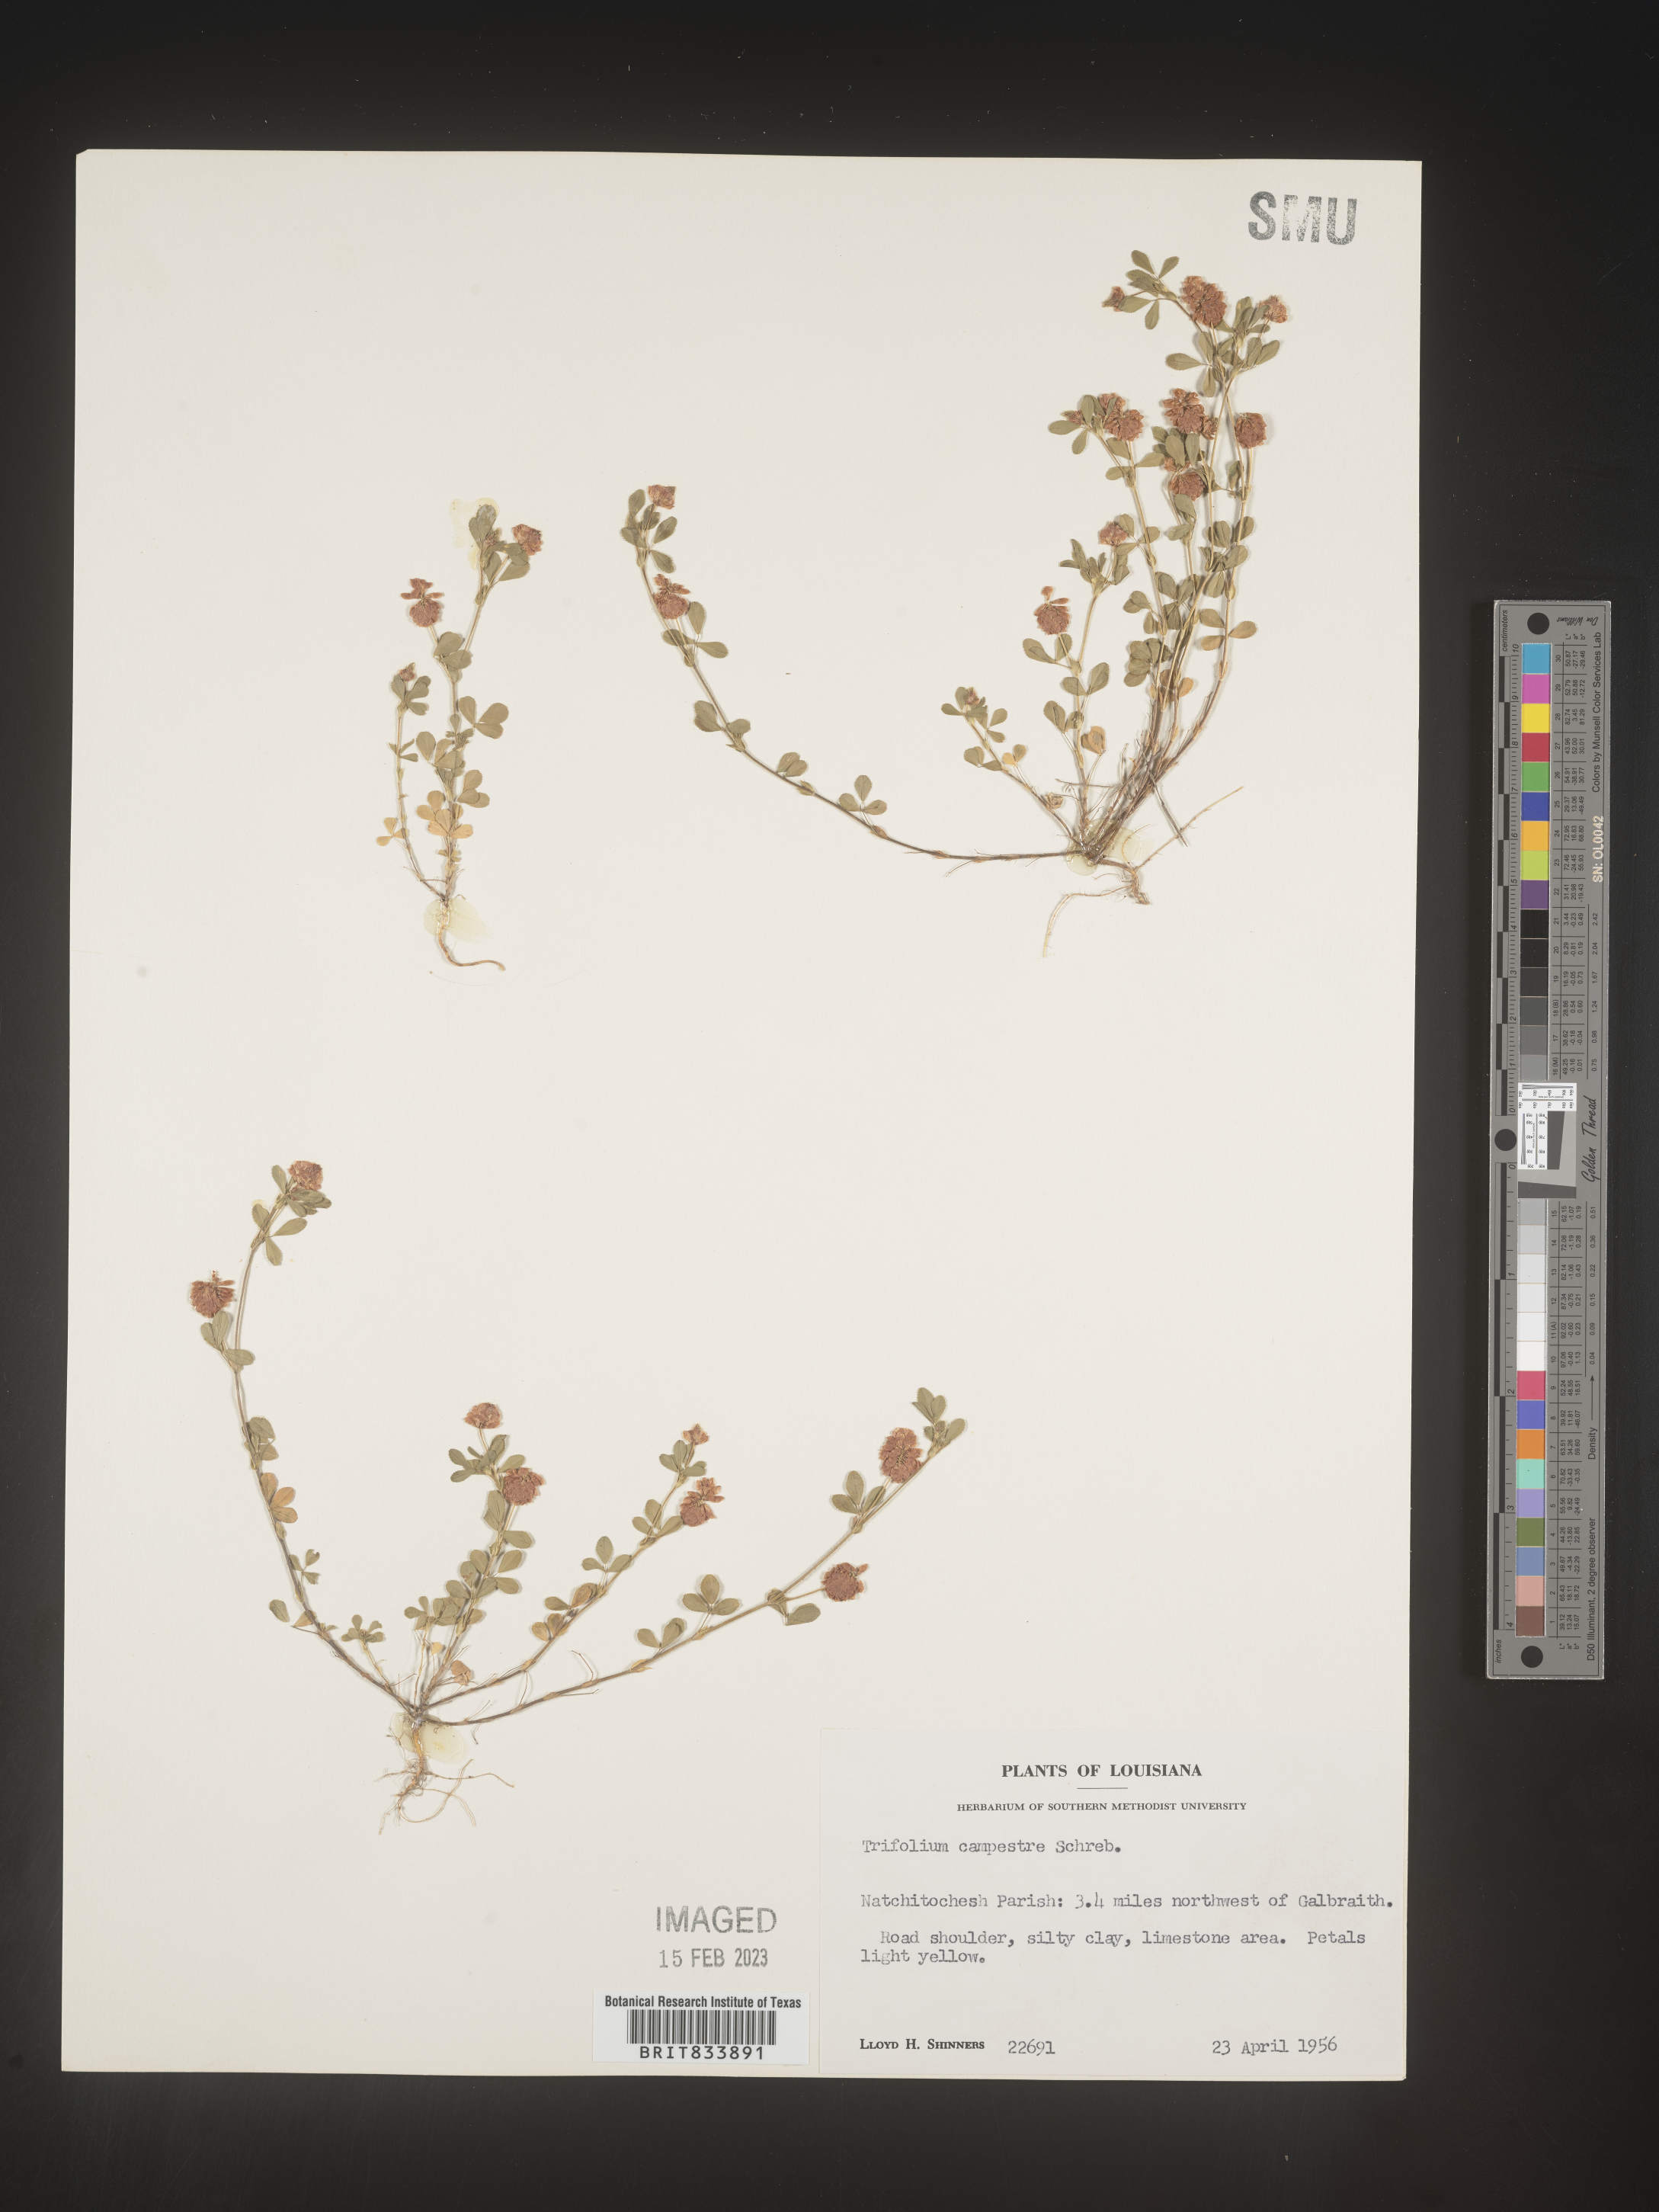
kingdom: Plantae
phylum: Tracheophyta
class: Magnoliopsida
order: Fabales
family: Fabaceae
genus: Trifolium
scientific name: Trifolium campestre
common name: Field clover
